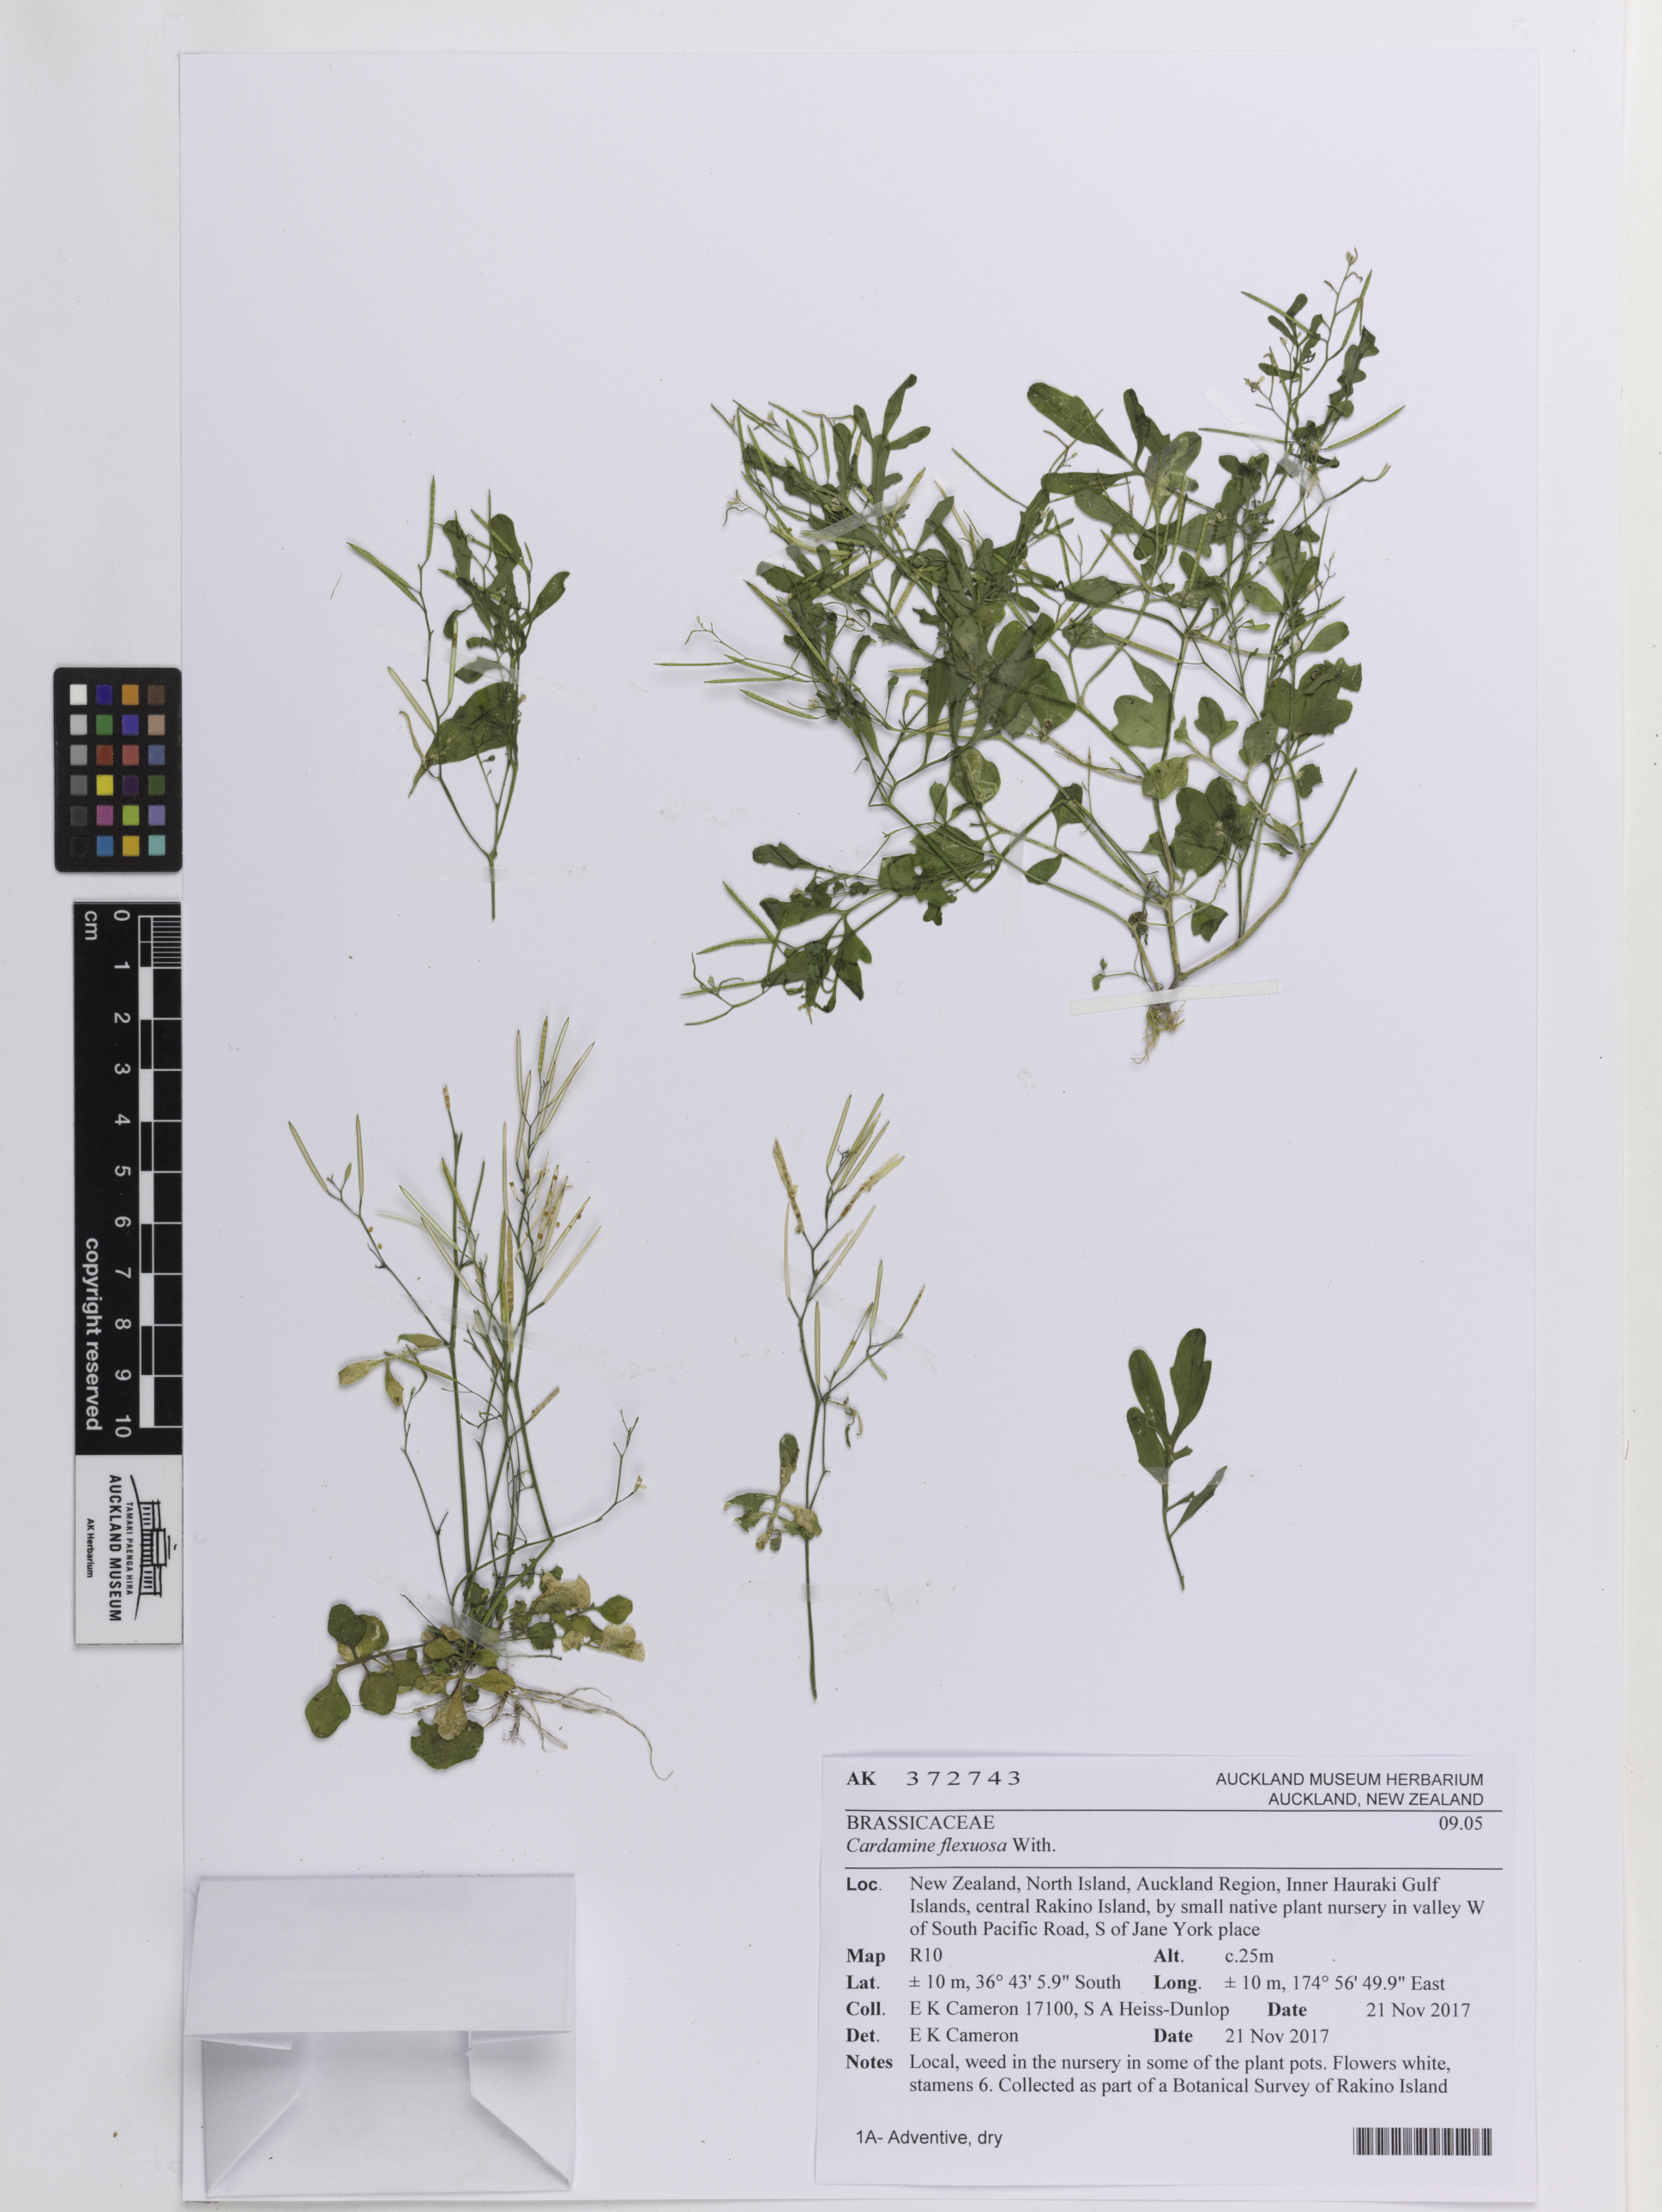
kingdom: Plantae
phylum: Tracheophyta
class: Magnoliopsida
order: Brassicales
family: Brassicaceae
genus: Cardamine
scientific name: Cardamine flexuosa
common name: Woodland bittercress
